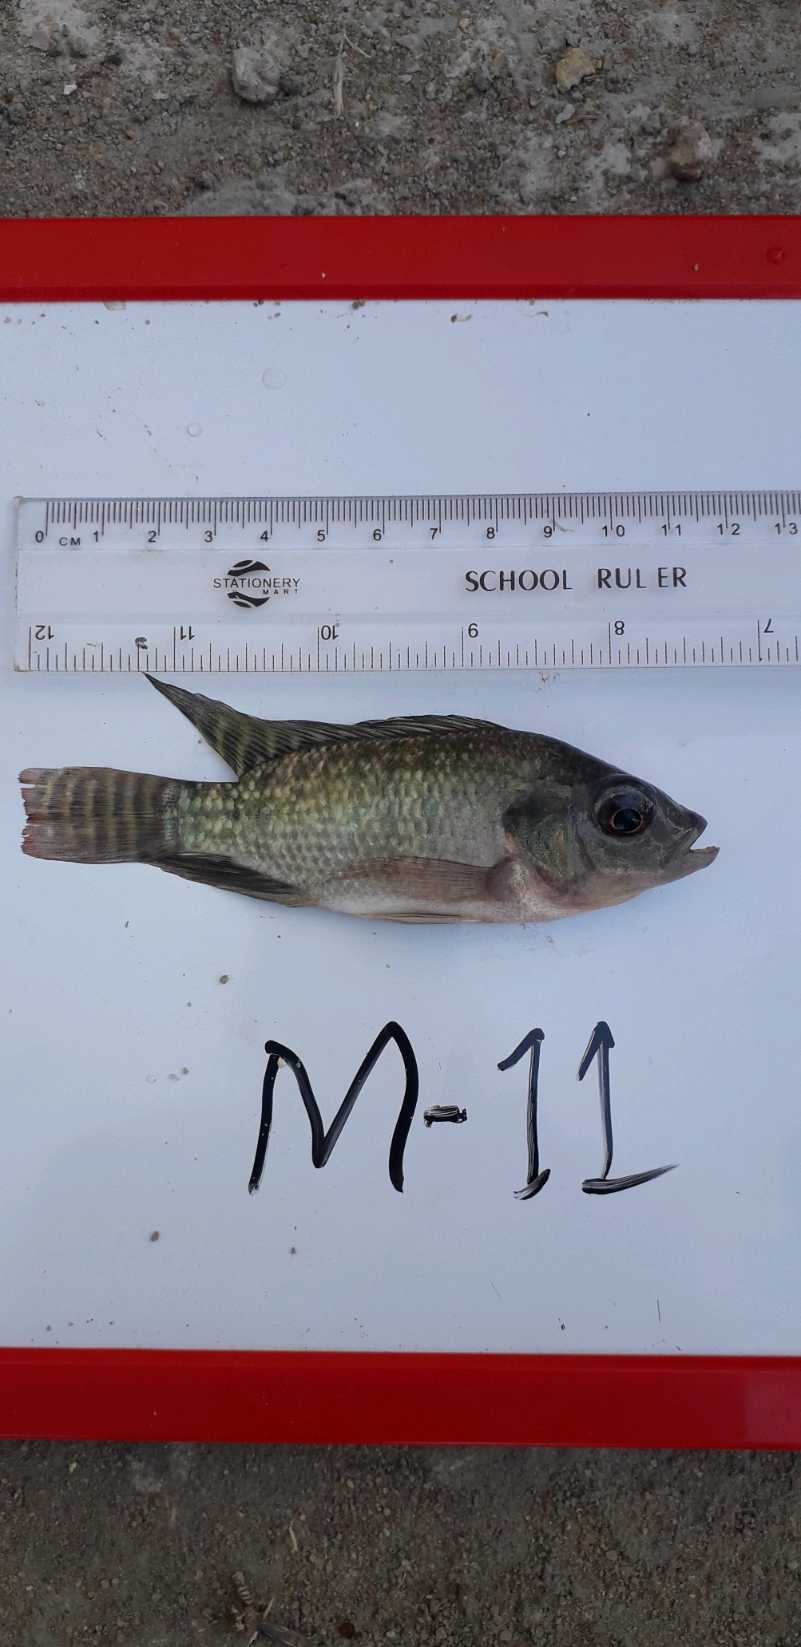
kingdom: Animalia
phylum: Chordata
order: Perciformes
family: Cichlidae
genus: Oreochromis
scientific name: Oreochromis niloticus
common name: Nile tilapia
